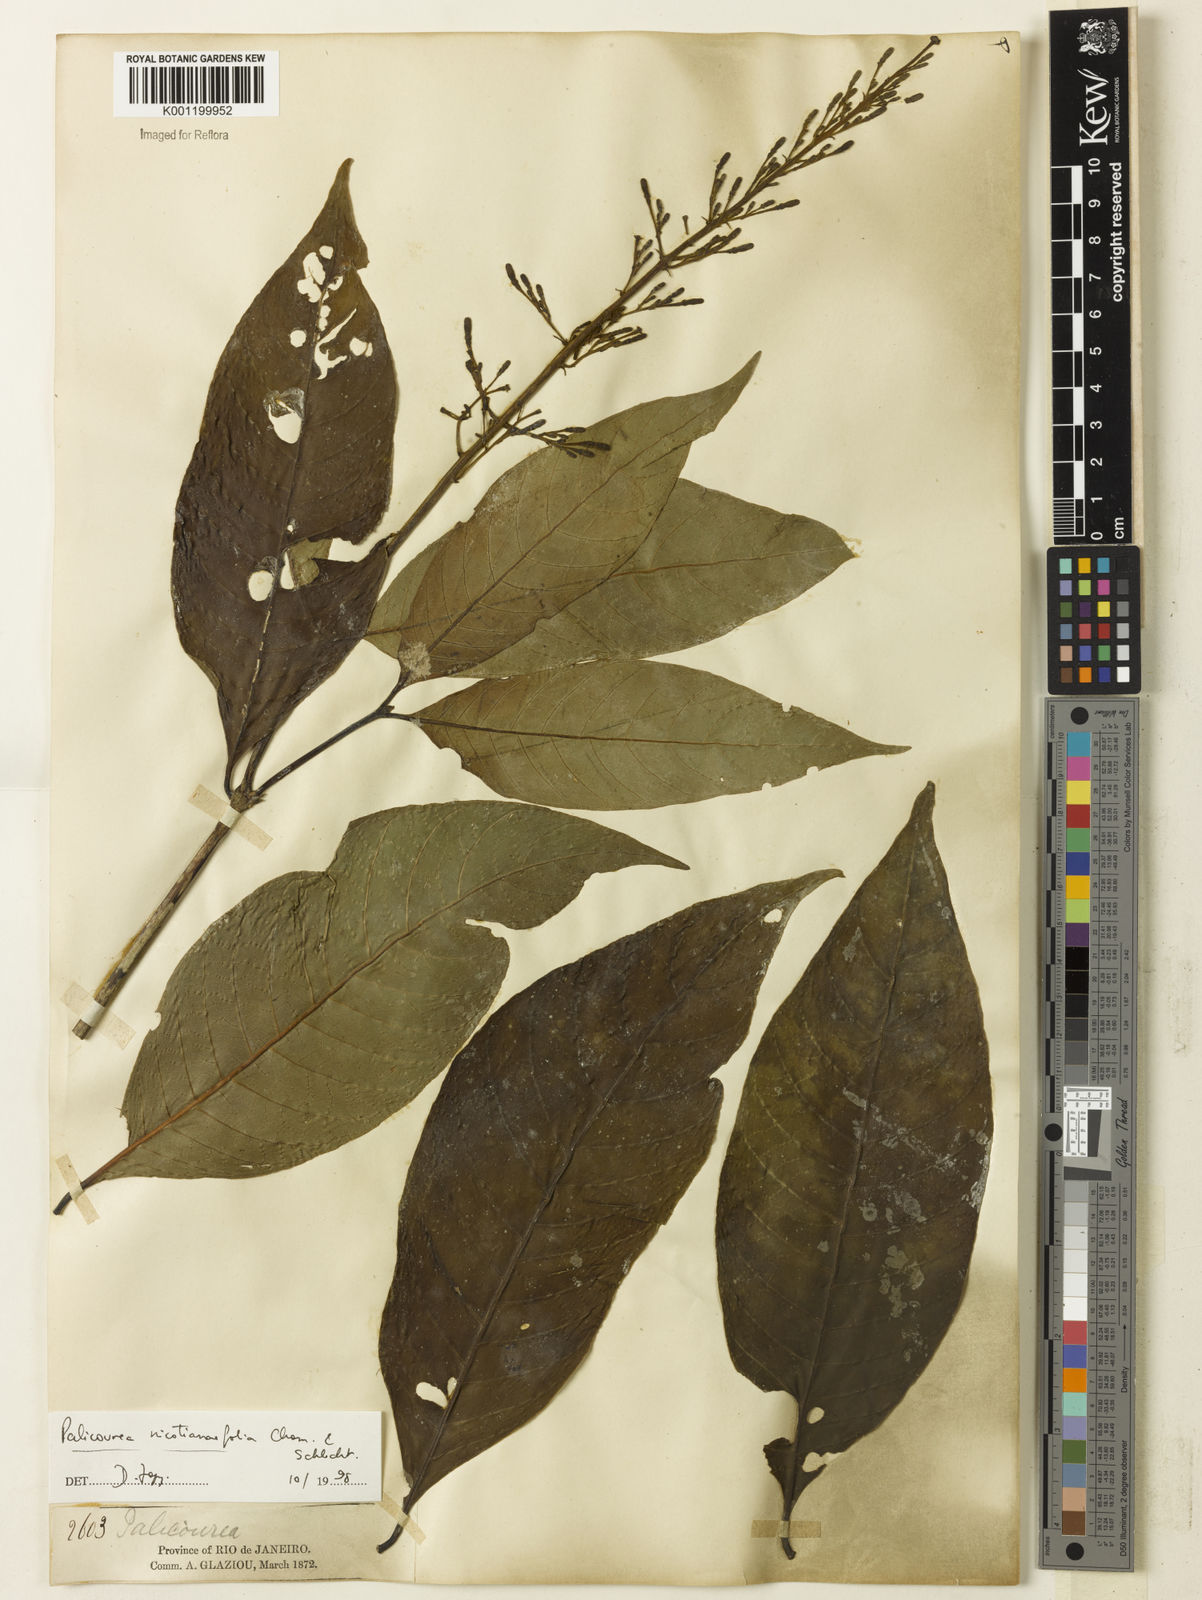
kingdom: Plantae
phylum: Tracheophyta
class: Magnoliopsida
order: Gentianales
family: Rubiaceae
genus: Palicourea
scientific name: Palicourea macrobotrys
